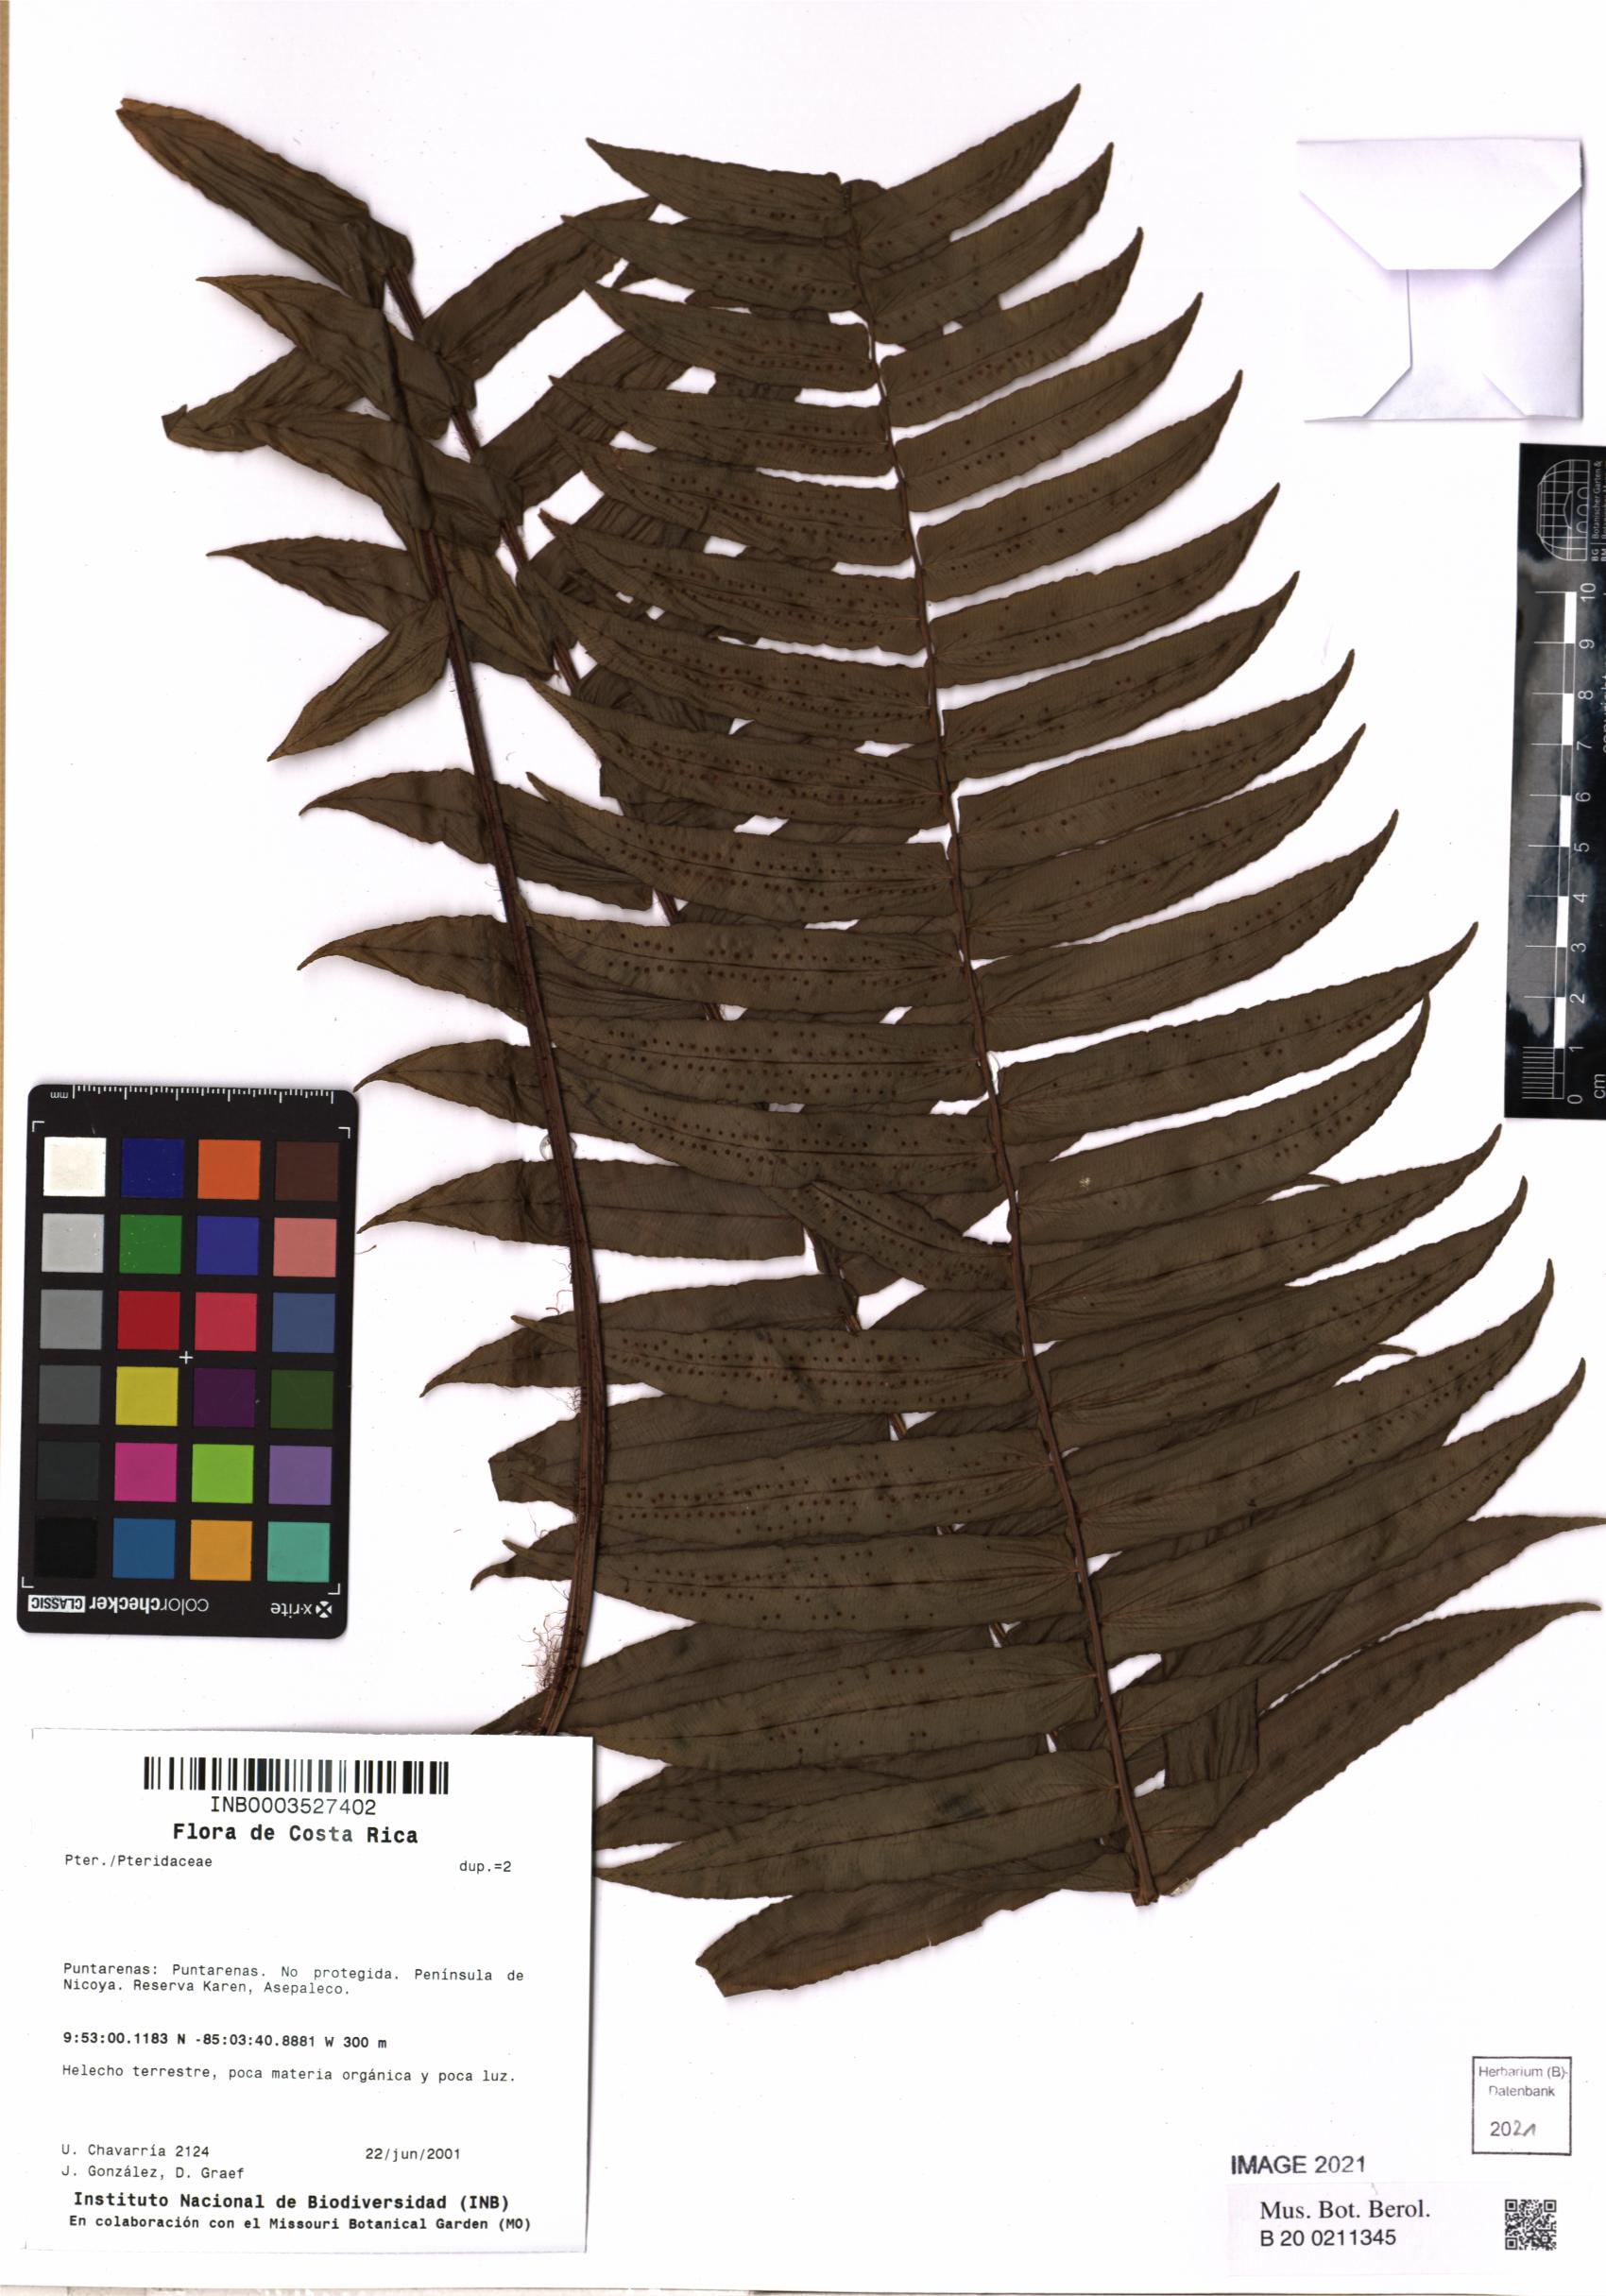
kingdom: Plantae
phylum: Tracheophyta
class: Polypodiopsida
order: Polypodiales
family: Pteridaceae
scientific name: Pteridaceae
